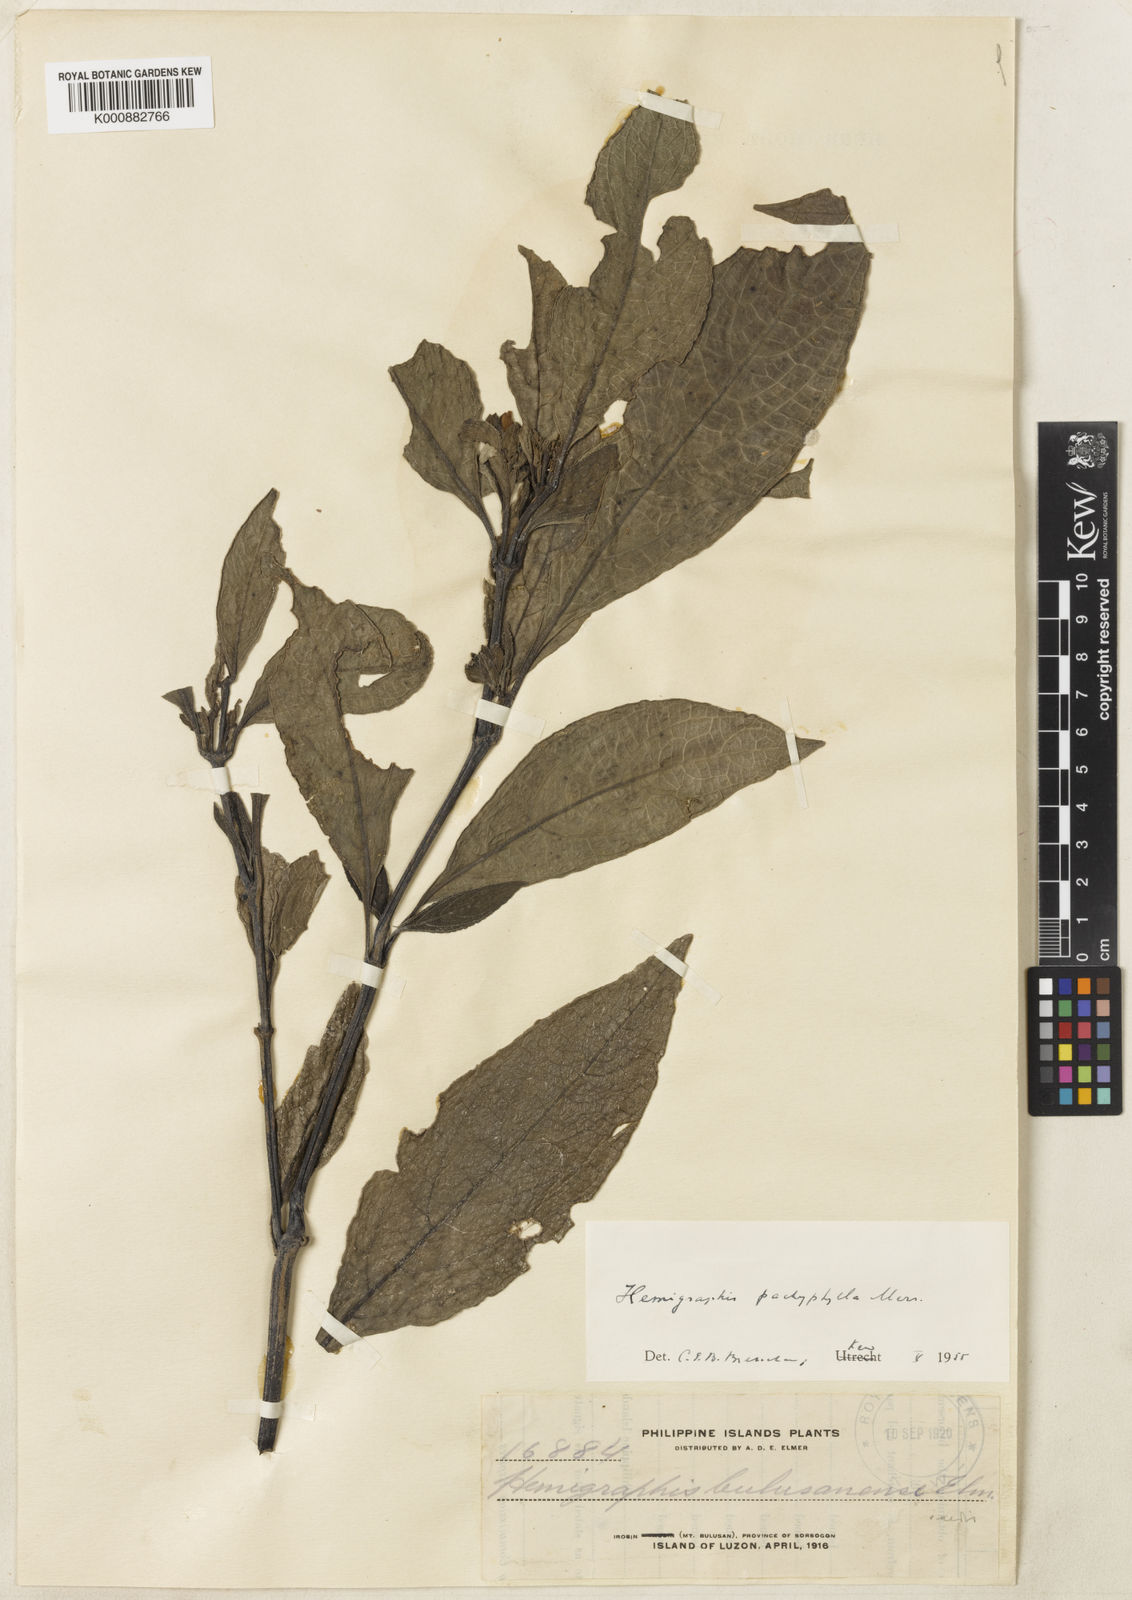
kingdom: Plantae
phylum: Tracheophyta
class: Magnoliopsida
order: Lamiales
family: Acanthaceae
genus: Strobilanthes
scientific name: Strobilanthes bulusanensis
